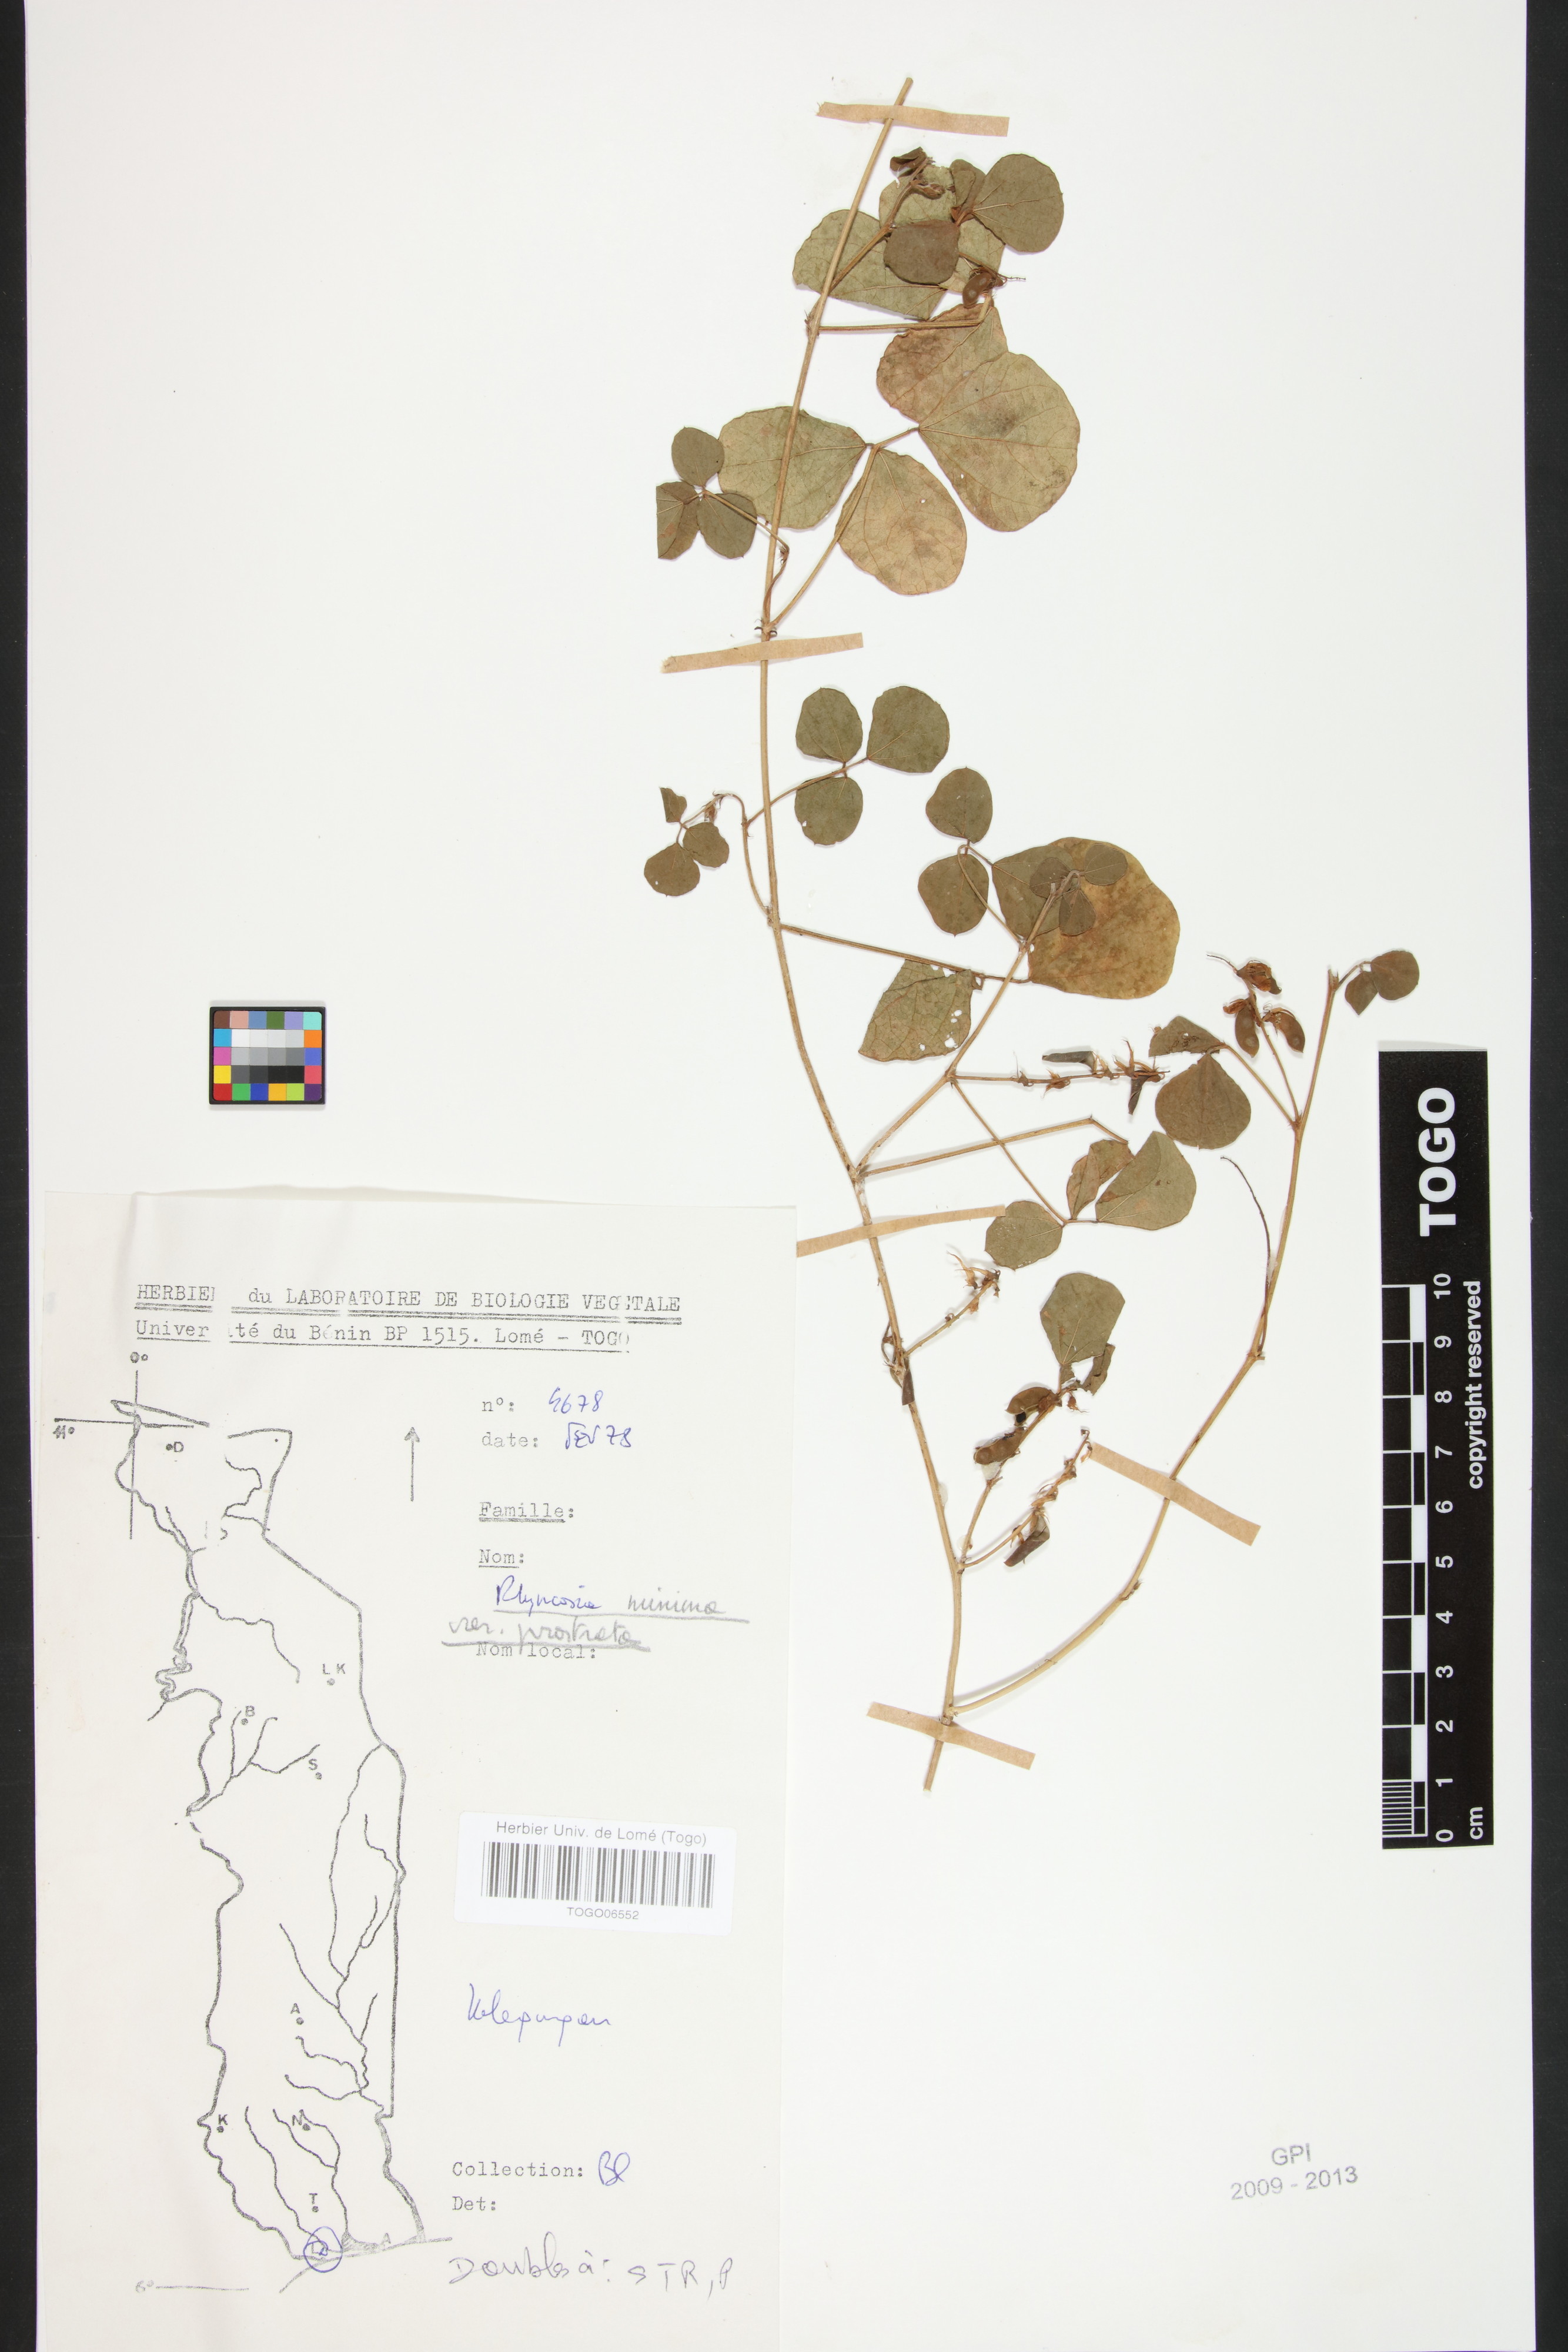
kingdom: Plantae
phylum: Tracheophyta
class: Magnoliopsida
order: Fabales
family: Fabaceae
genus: Rhynchosia
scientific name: Rhynchosia minima
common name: Least snoutbean
